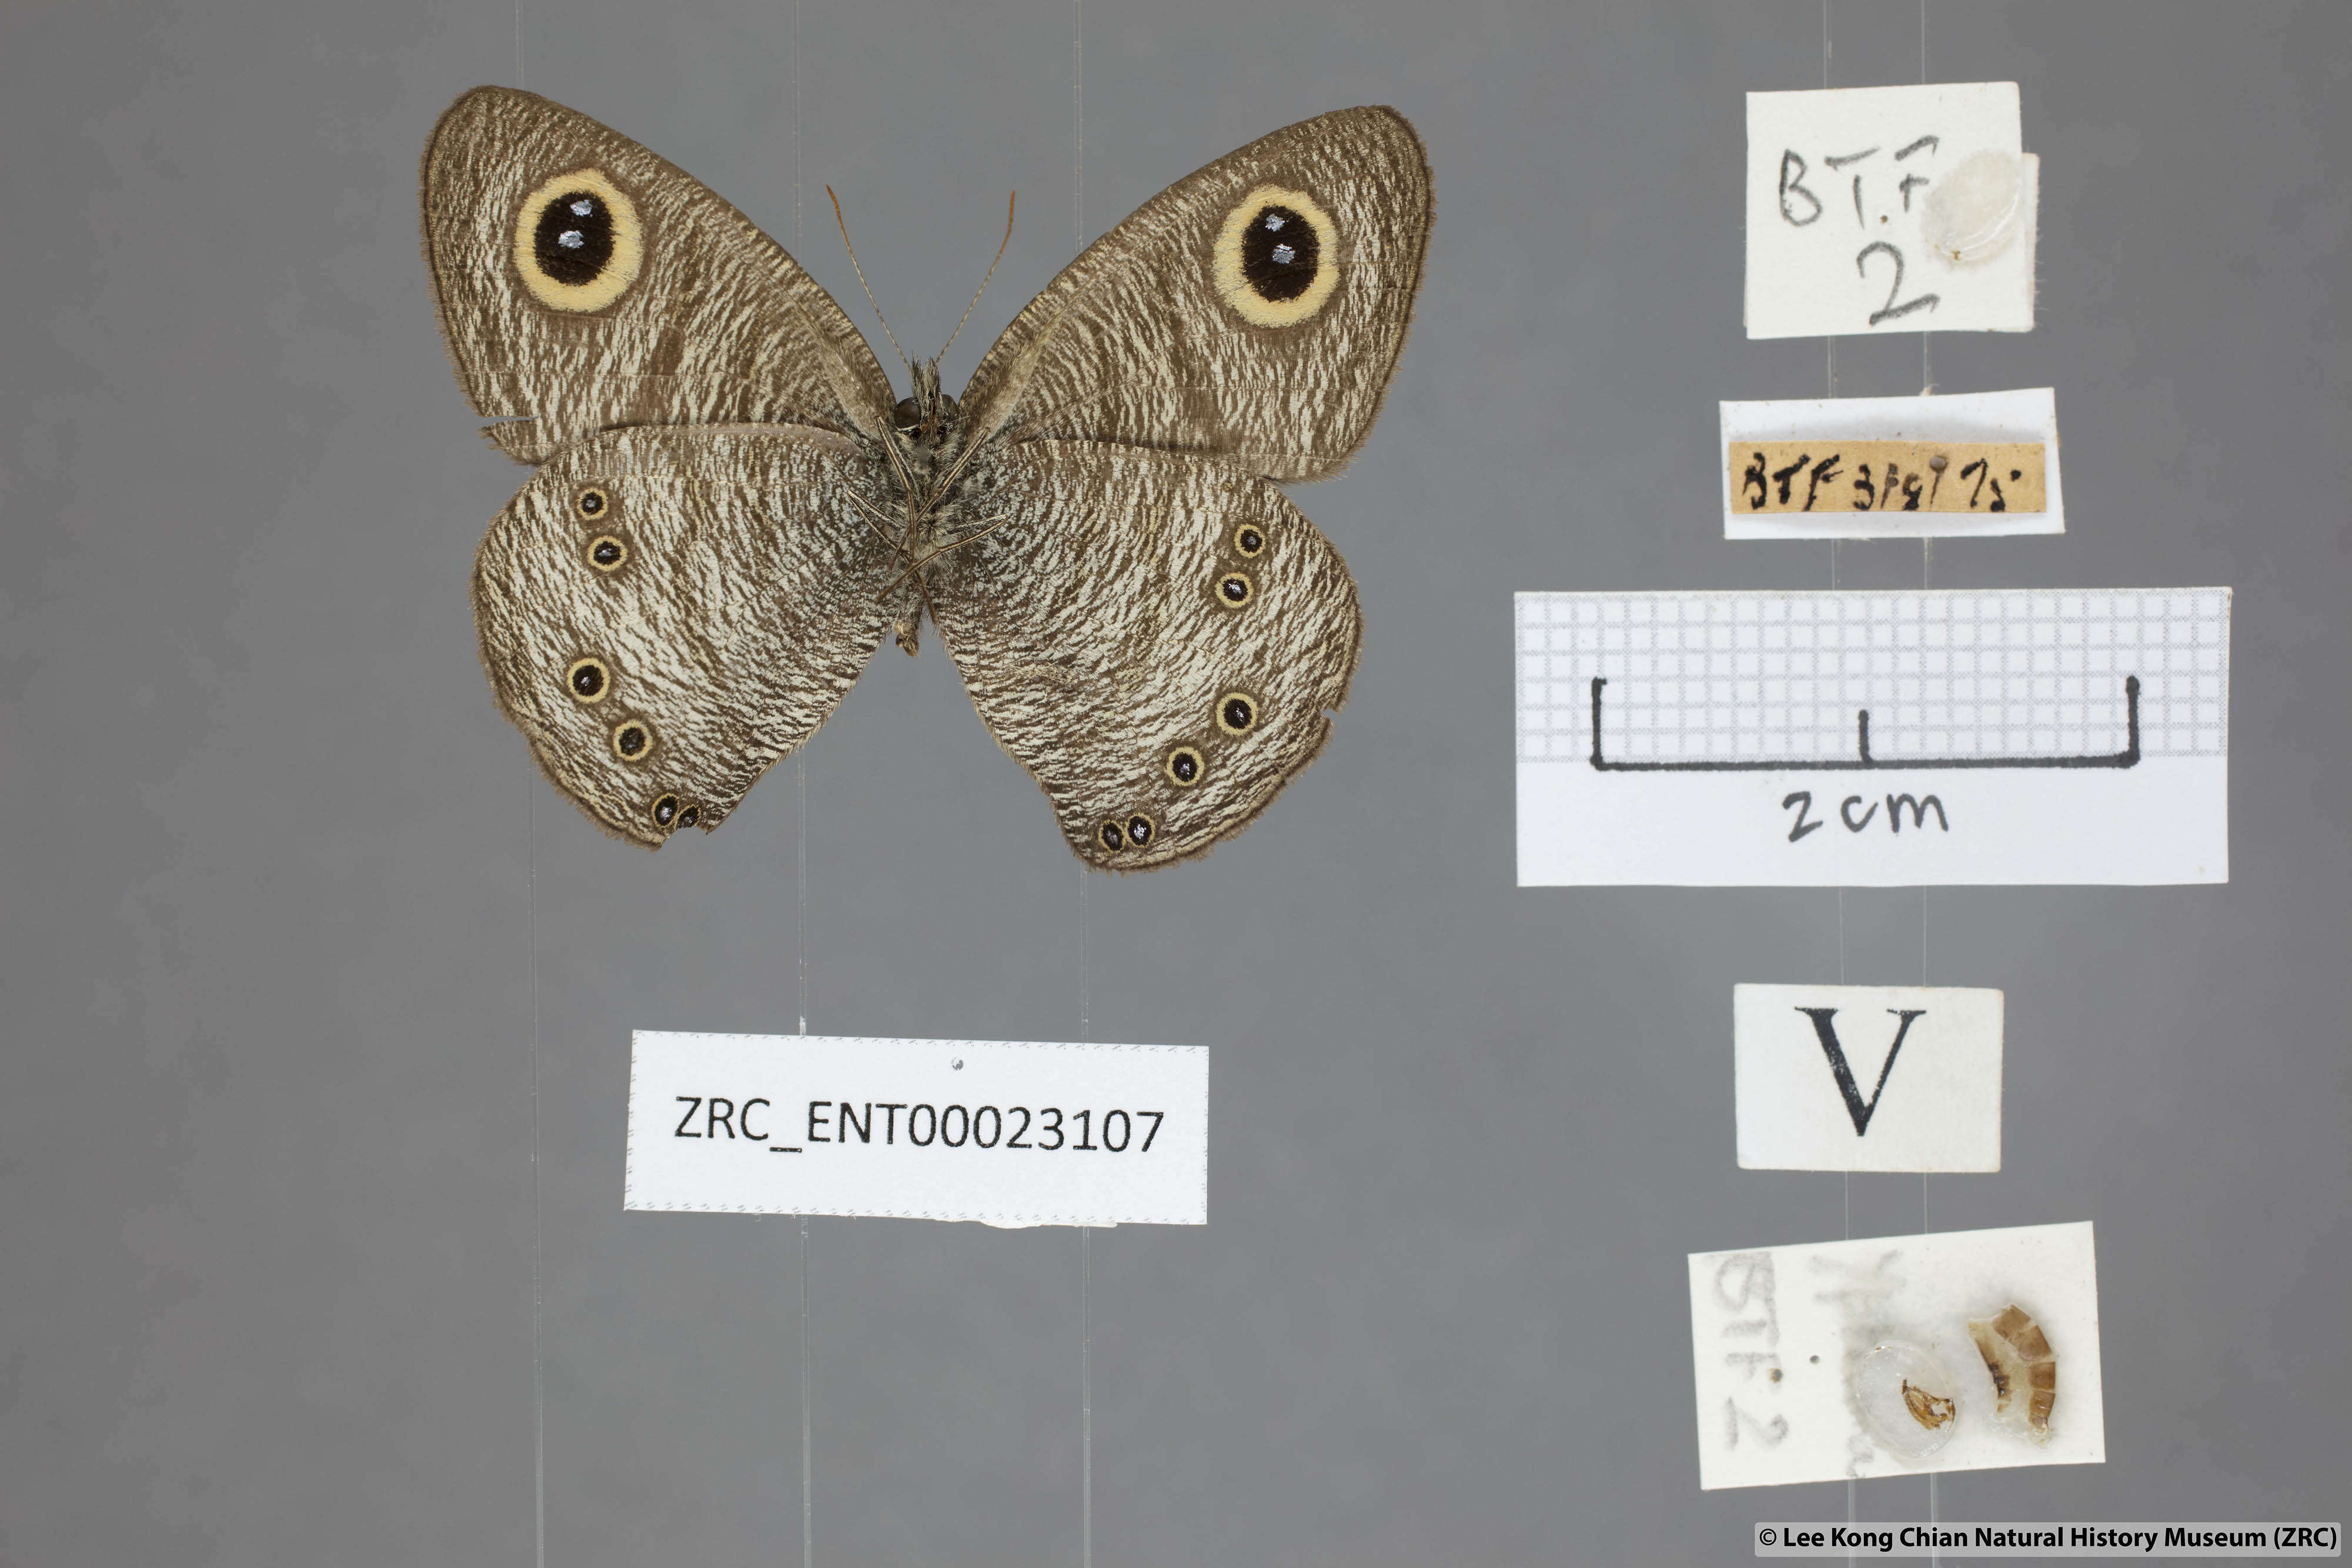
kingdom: Animalia
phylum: Arthropoda
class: Insecta
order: Lepidoptera
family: Nymphalidae
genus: Ypthima
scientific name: Ypthima baldus
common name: Common five-ring
